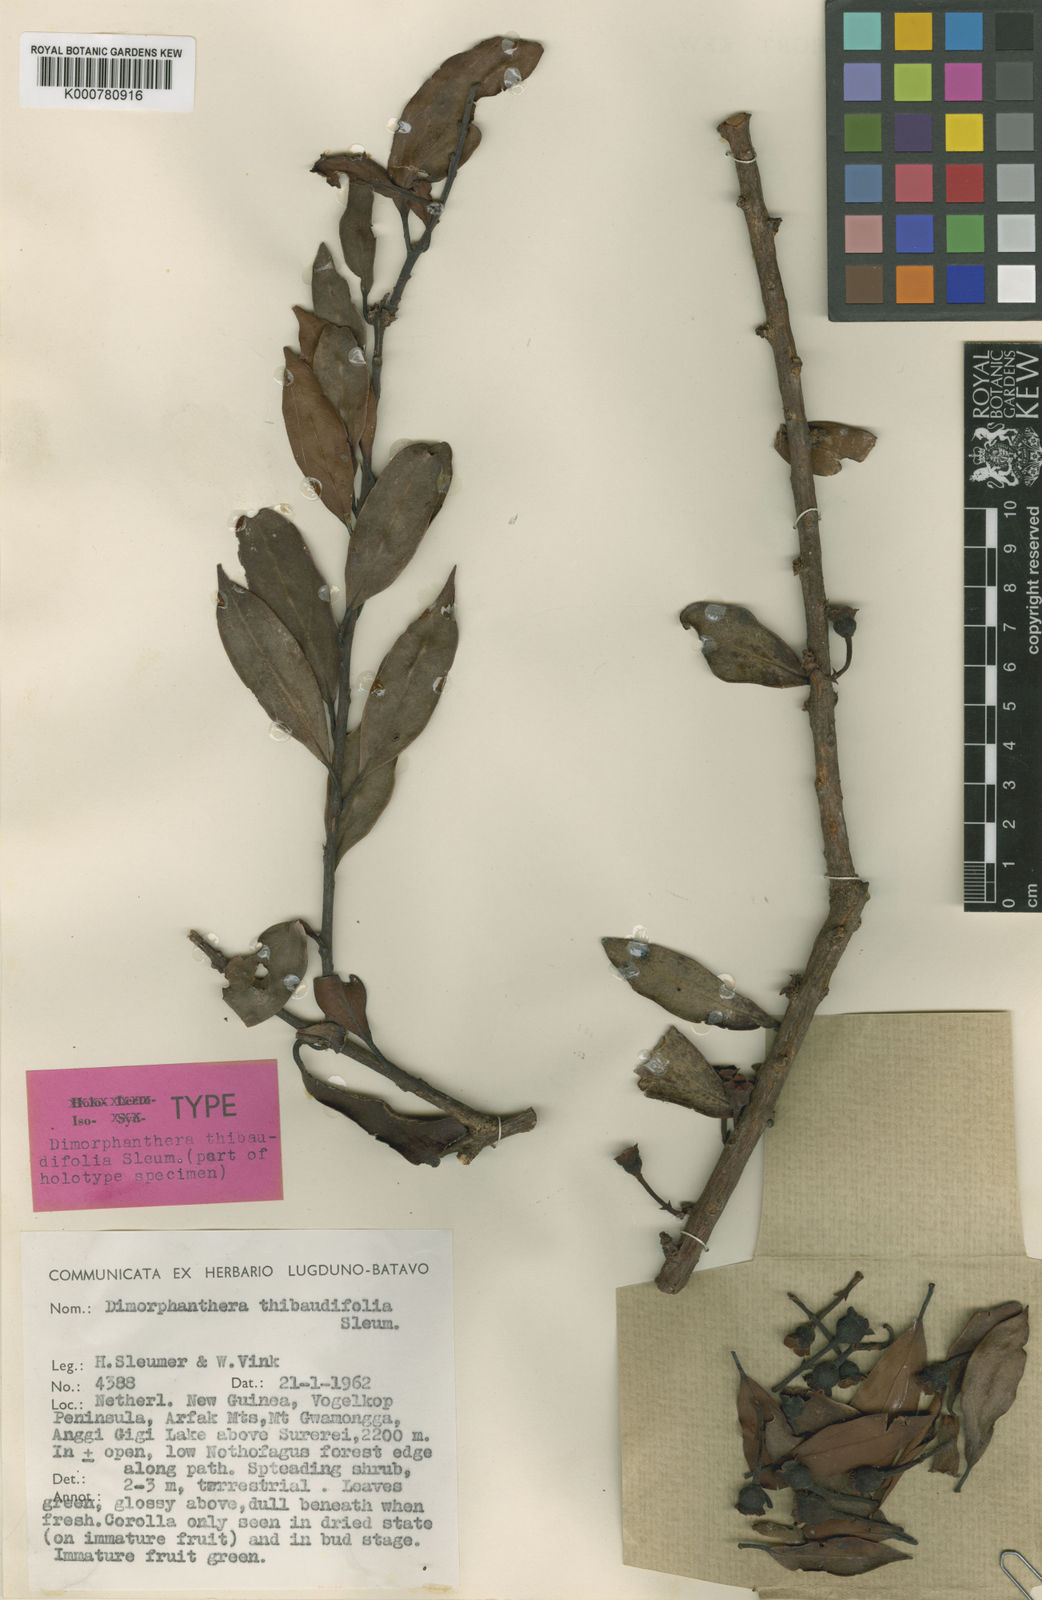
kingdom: Plantae
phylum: Tracheophyta
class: Magnoliopsida
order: Ericales
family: Ericaceae
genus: Dimorphanthera
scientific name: Dimorphanthera thibaudifolia
